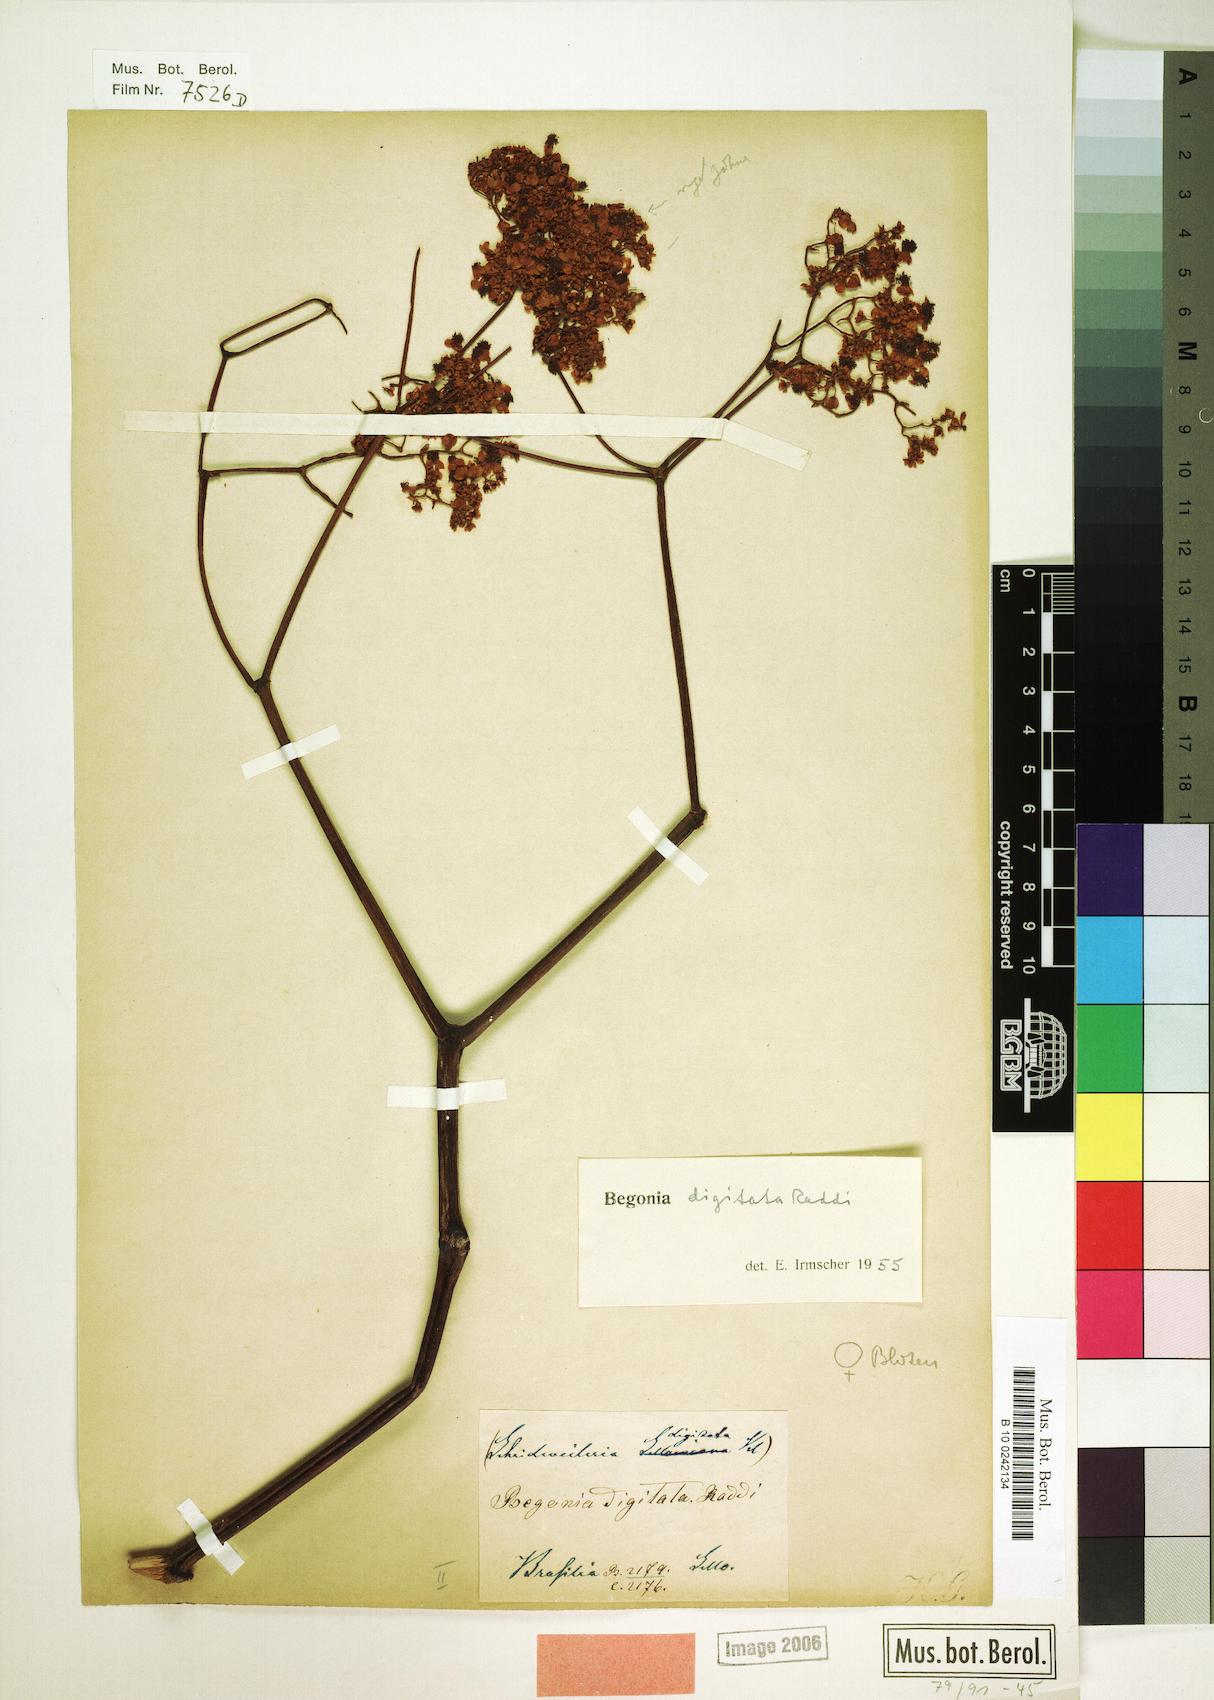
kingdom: Plantae
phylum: Tracheophyta
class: Magnoliopsida
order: Cucurbitales
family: Begoniaceae
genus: Begonia
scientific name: Begonia digitata
